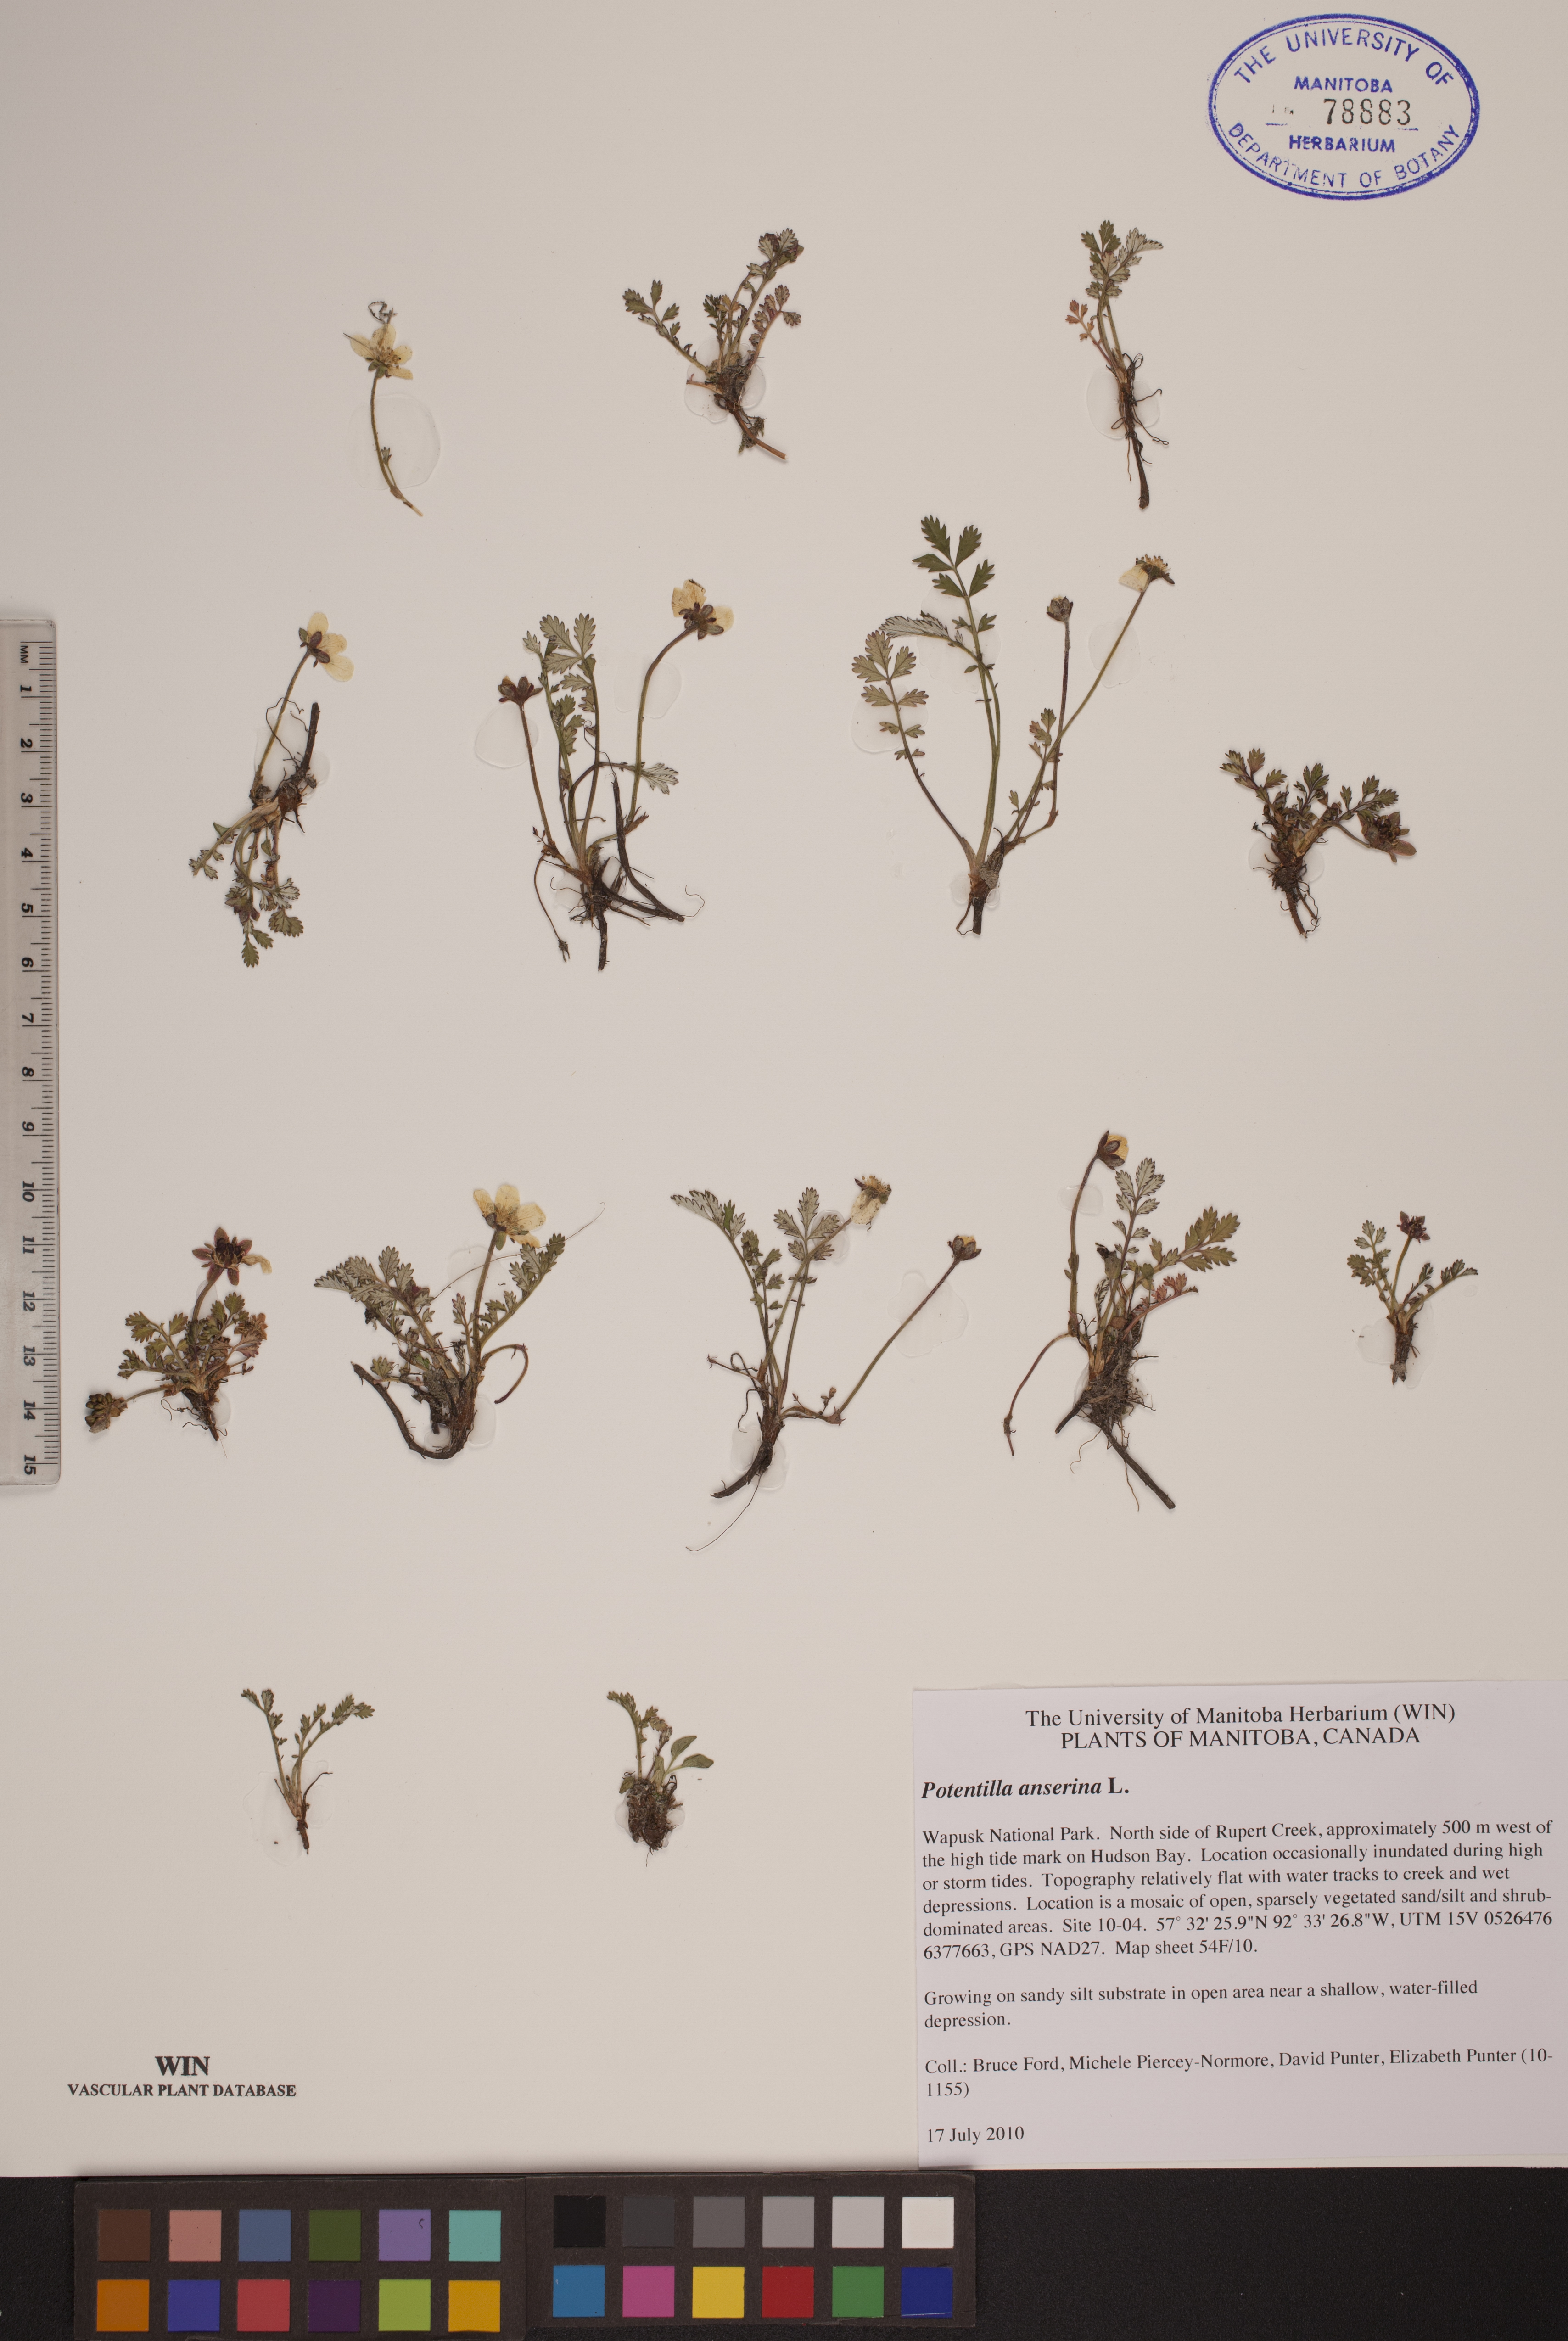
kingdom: Plantae
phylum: Tracheophyta
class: Magnoliopsida
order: Rosales
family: Rosaceae
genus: Argentina
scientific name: Argentina anserina
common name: Common silverweed
